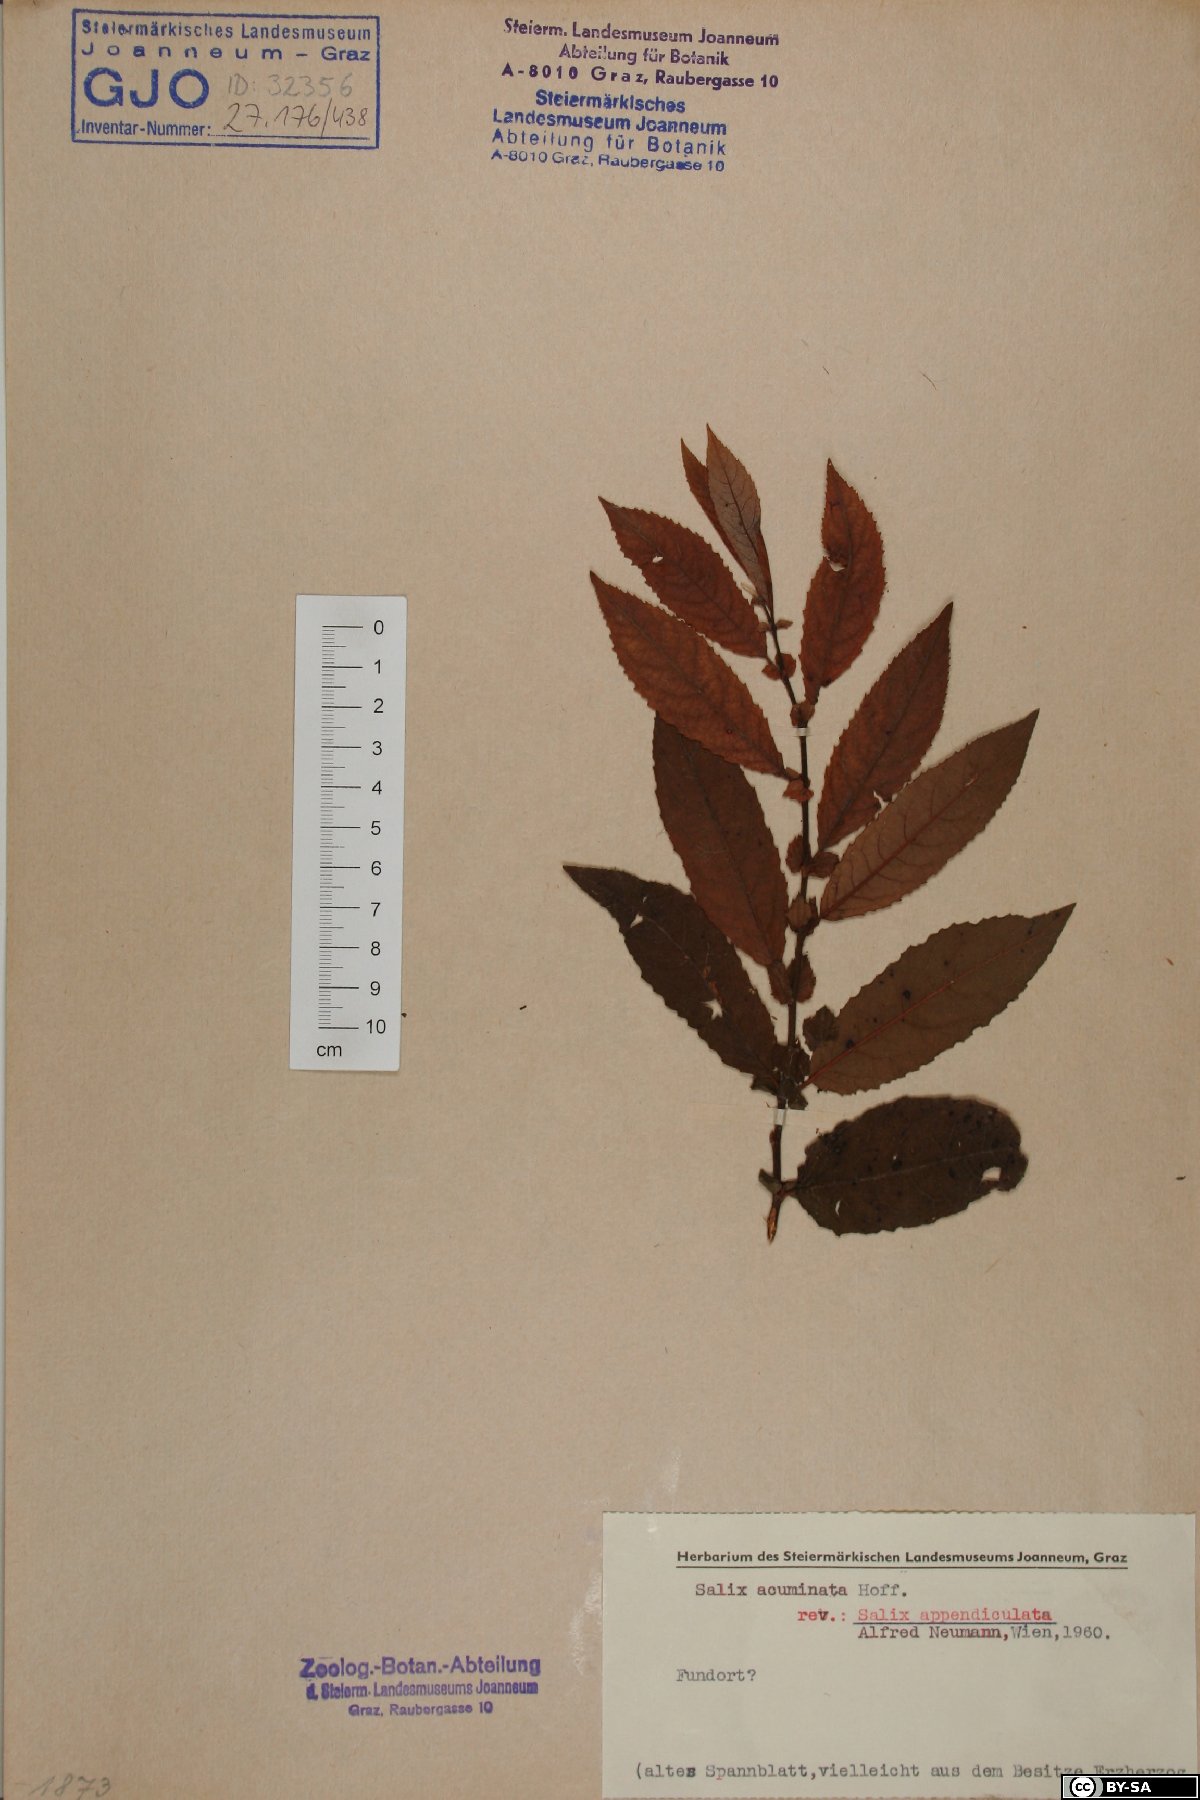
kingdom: Plantae
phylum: Tracheophyta
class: Magnoliopsida
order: Malpighiales
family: Salicaceae
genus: Salix
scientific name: Salix appendiculata
